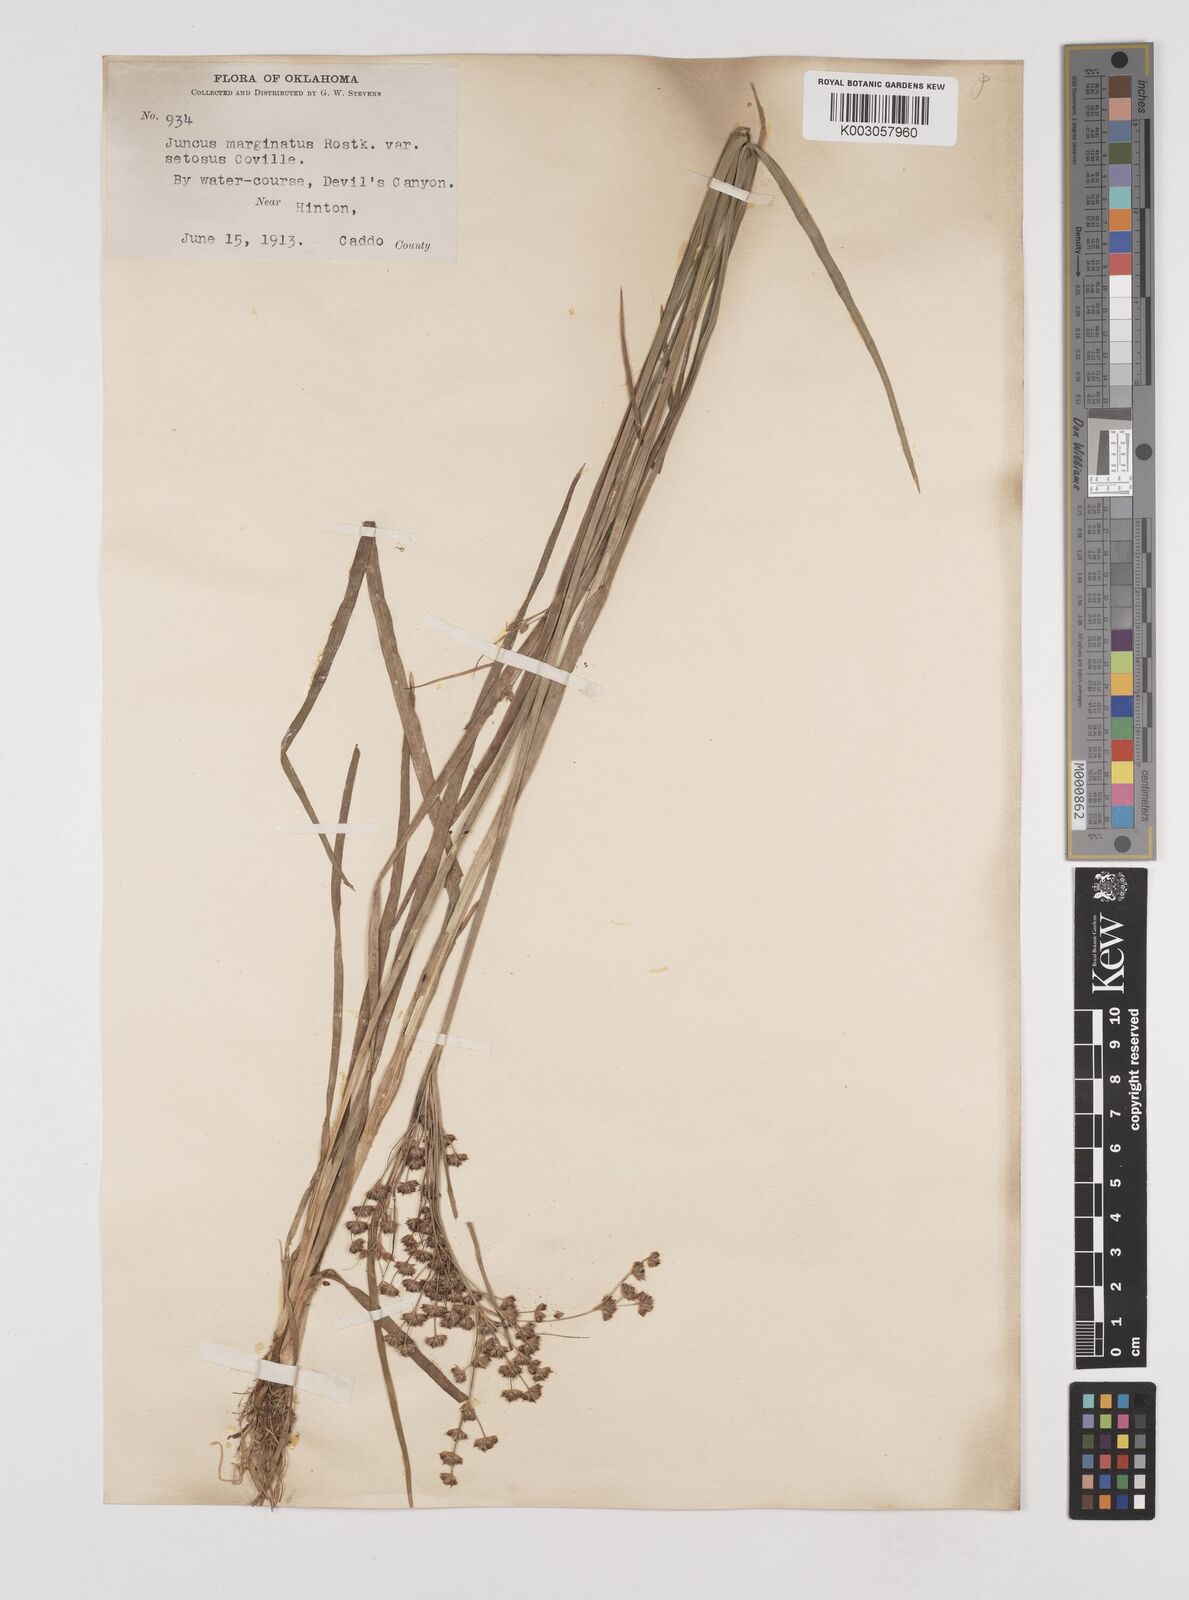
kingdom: Plantae
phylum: Tracheophyta
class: Liliopsida
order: Poales
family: Juncaceae
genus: Juncus
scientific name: Juncus marginatus
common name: Grass-leaf rush
